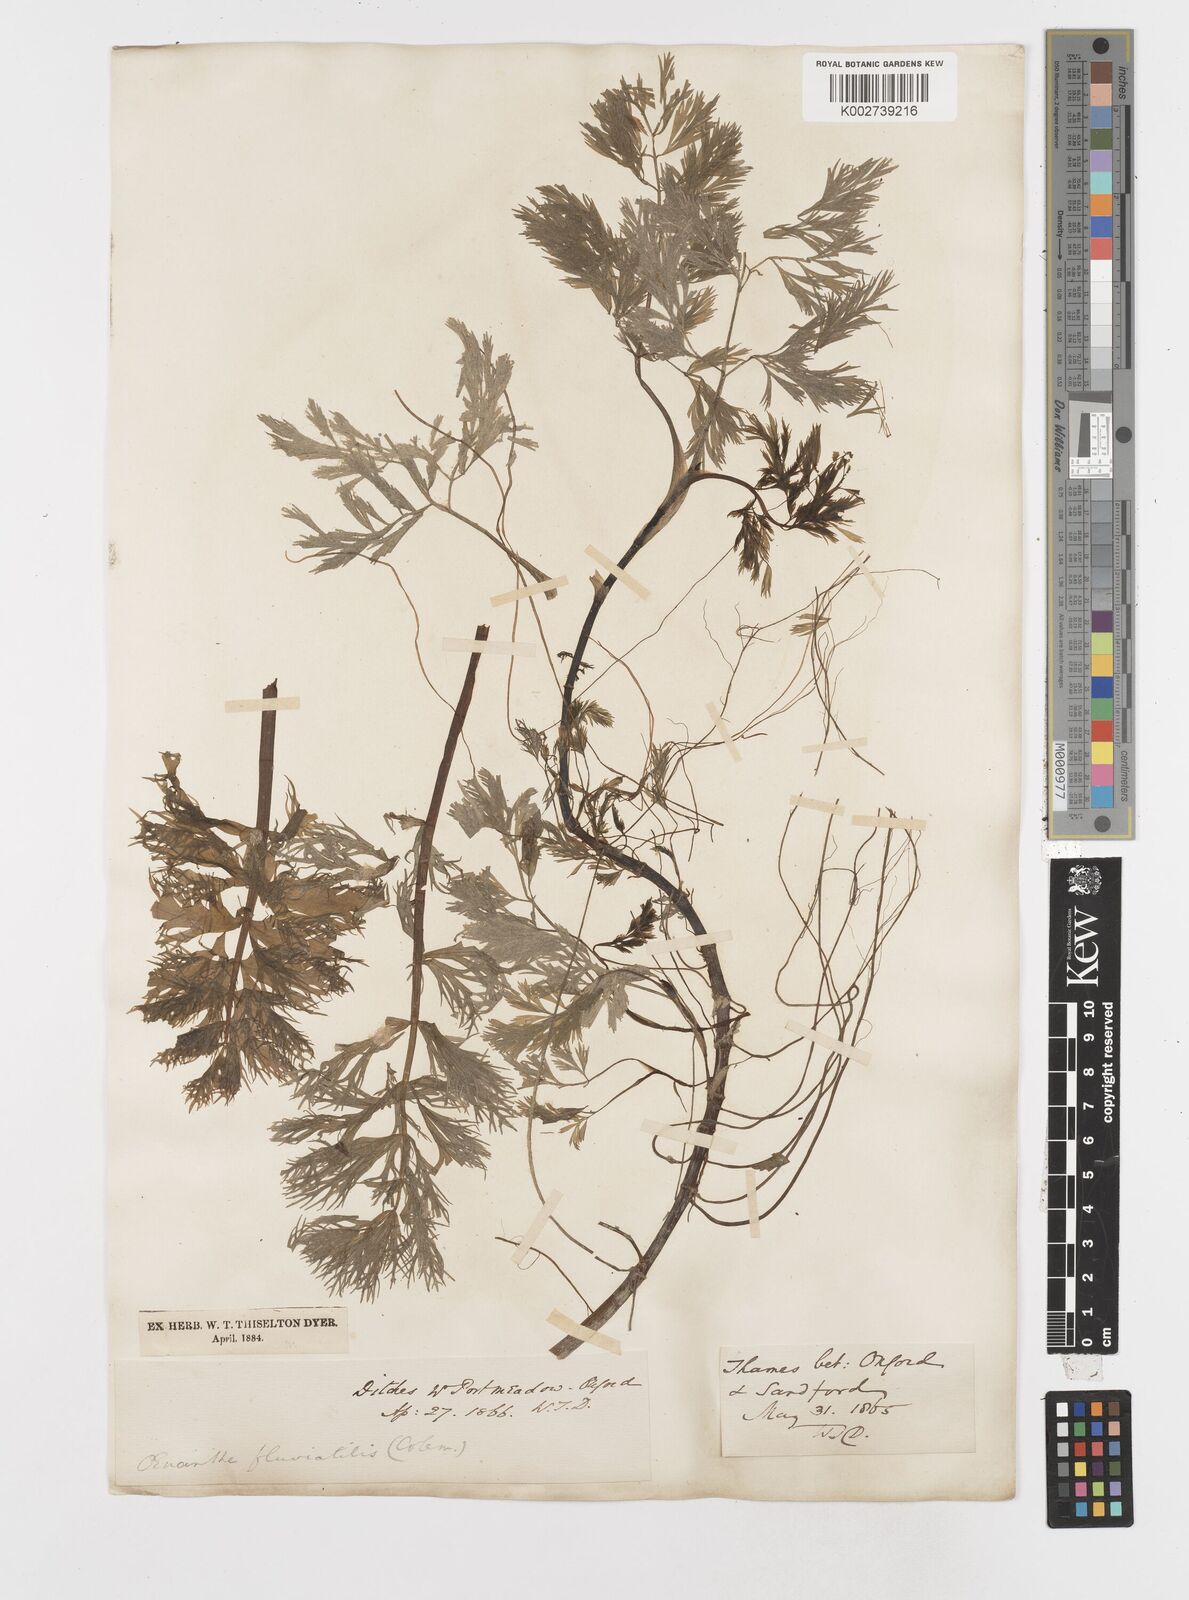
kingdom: Plantae
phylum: Tracheophyta
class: Magnoliopsida
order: Apiales
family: Apiaceae
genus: Oenanthe
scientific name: Oenanthe fluviatilis
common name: River water-dropwort
